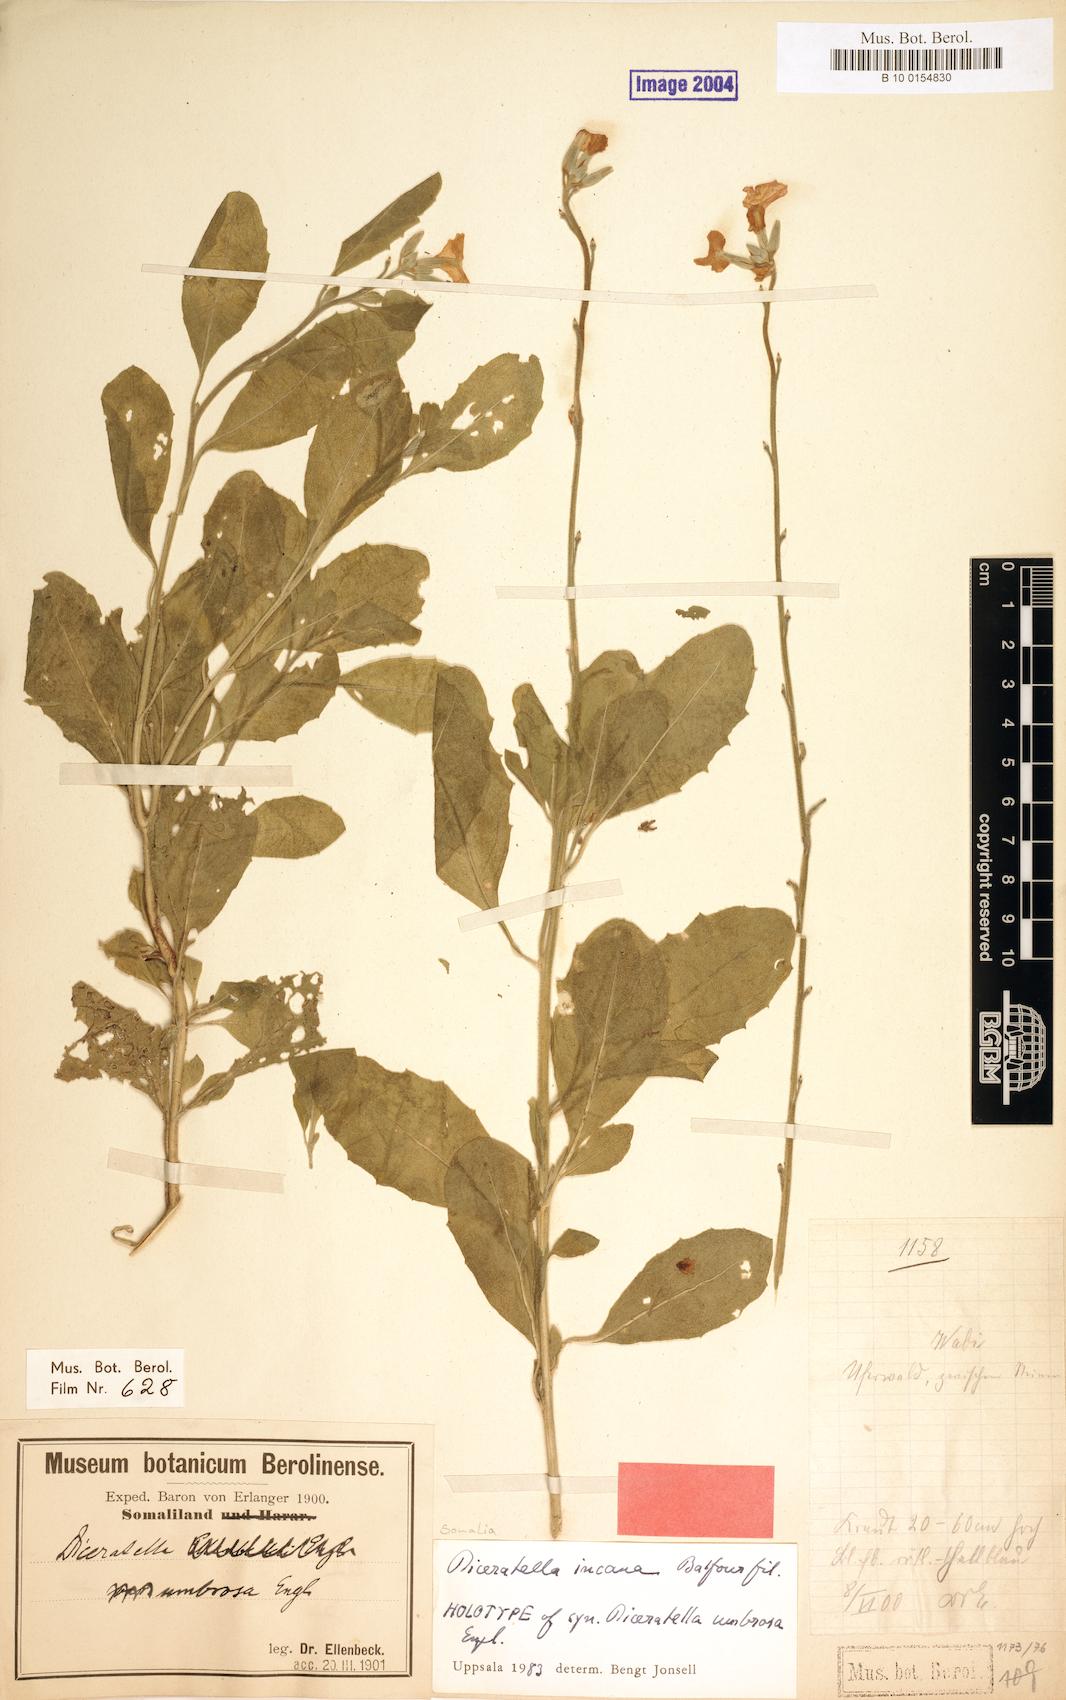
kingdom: Plantae
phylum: Tracheophyta
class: Magnoliopsida
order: Brassicales
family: Brassicaceae
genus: Diceratella
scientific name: Diceratella incana
